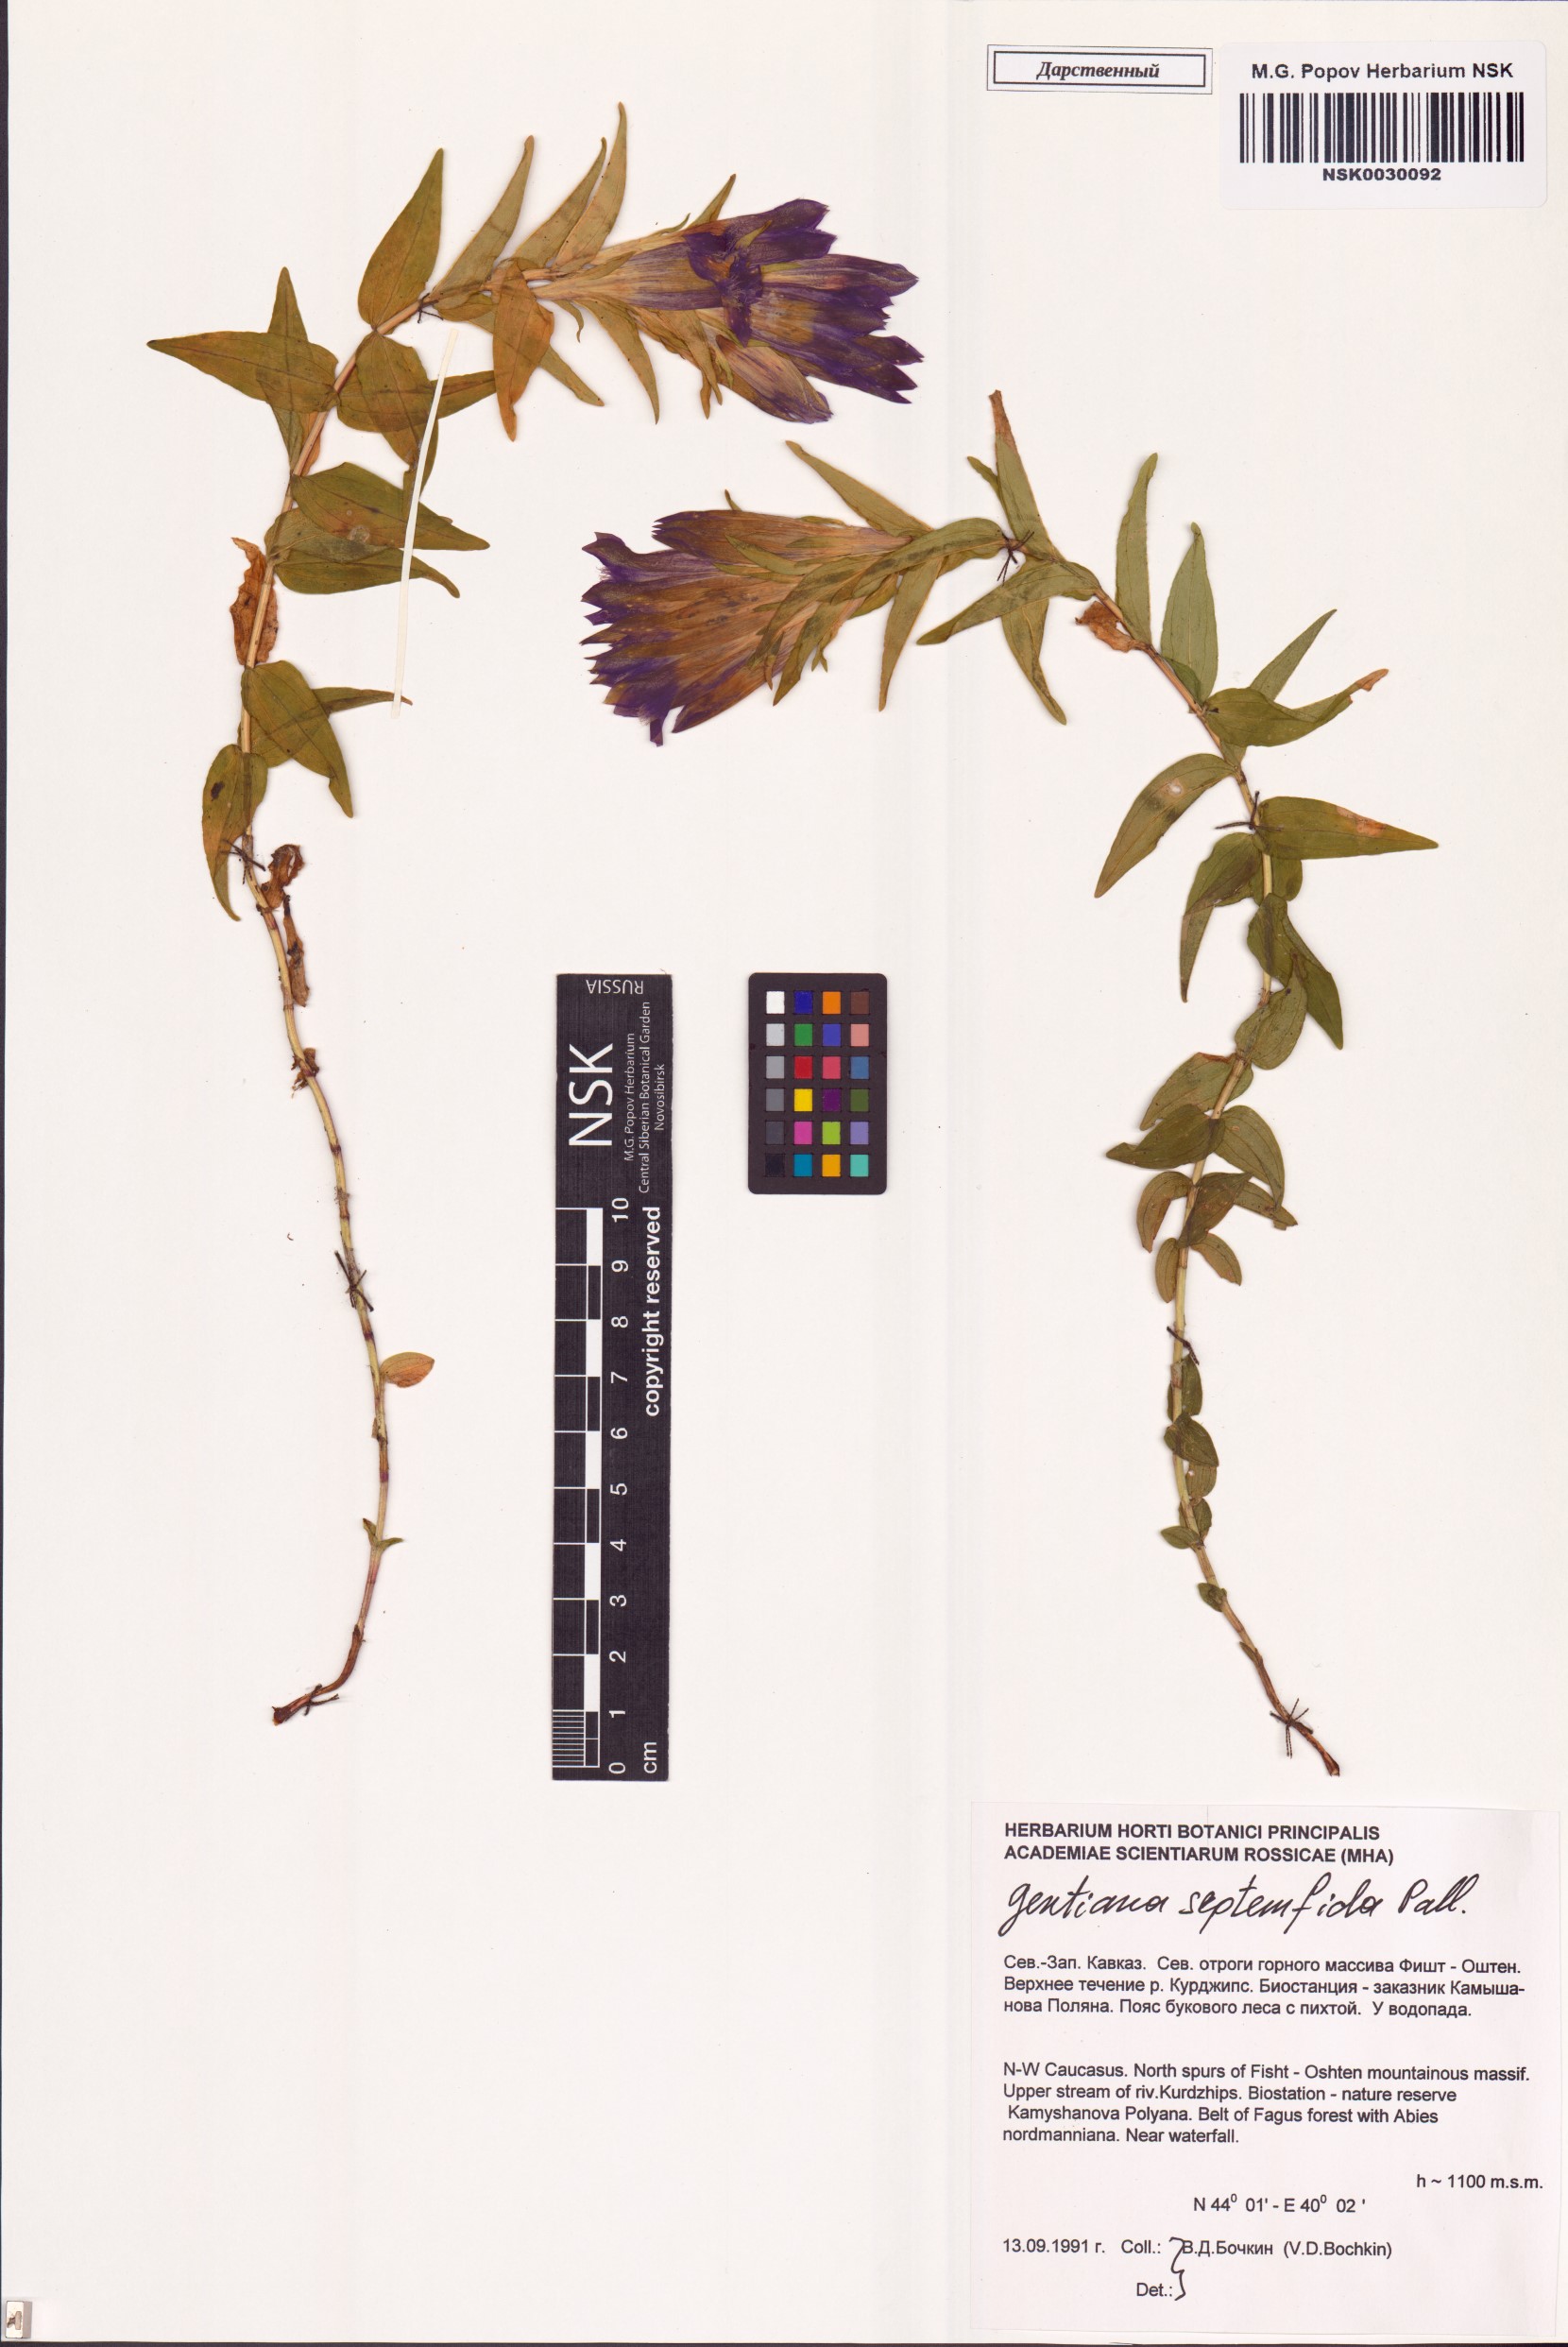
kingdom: Plantae
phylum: Tracheophyta
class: Magnoliopsida
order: Gentianales
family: Gentianaceae
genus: Gentiana
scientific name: Gentiana septemfida
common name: Crested gentian
